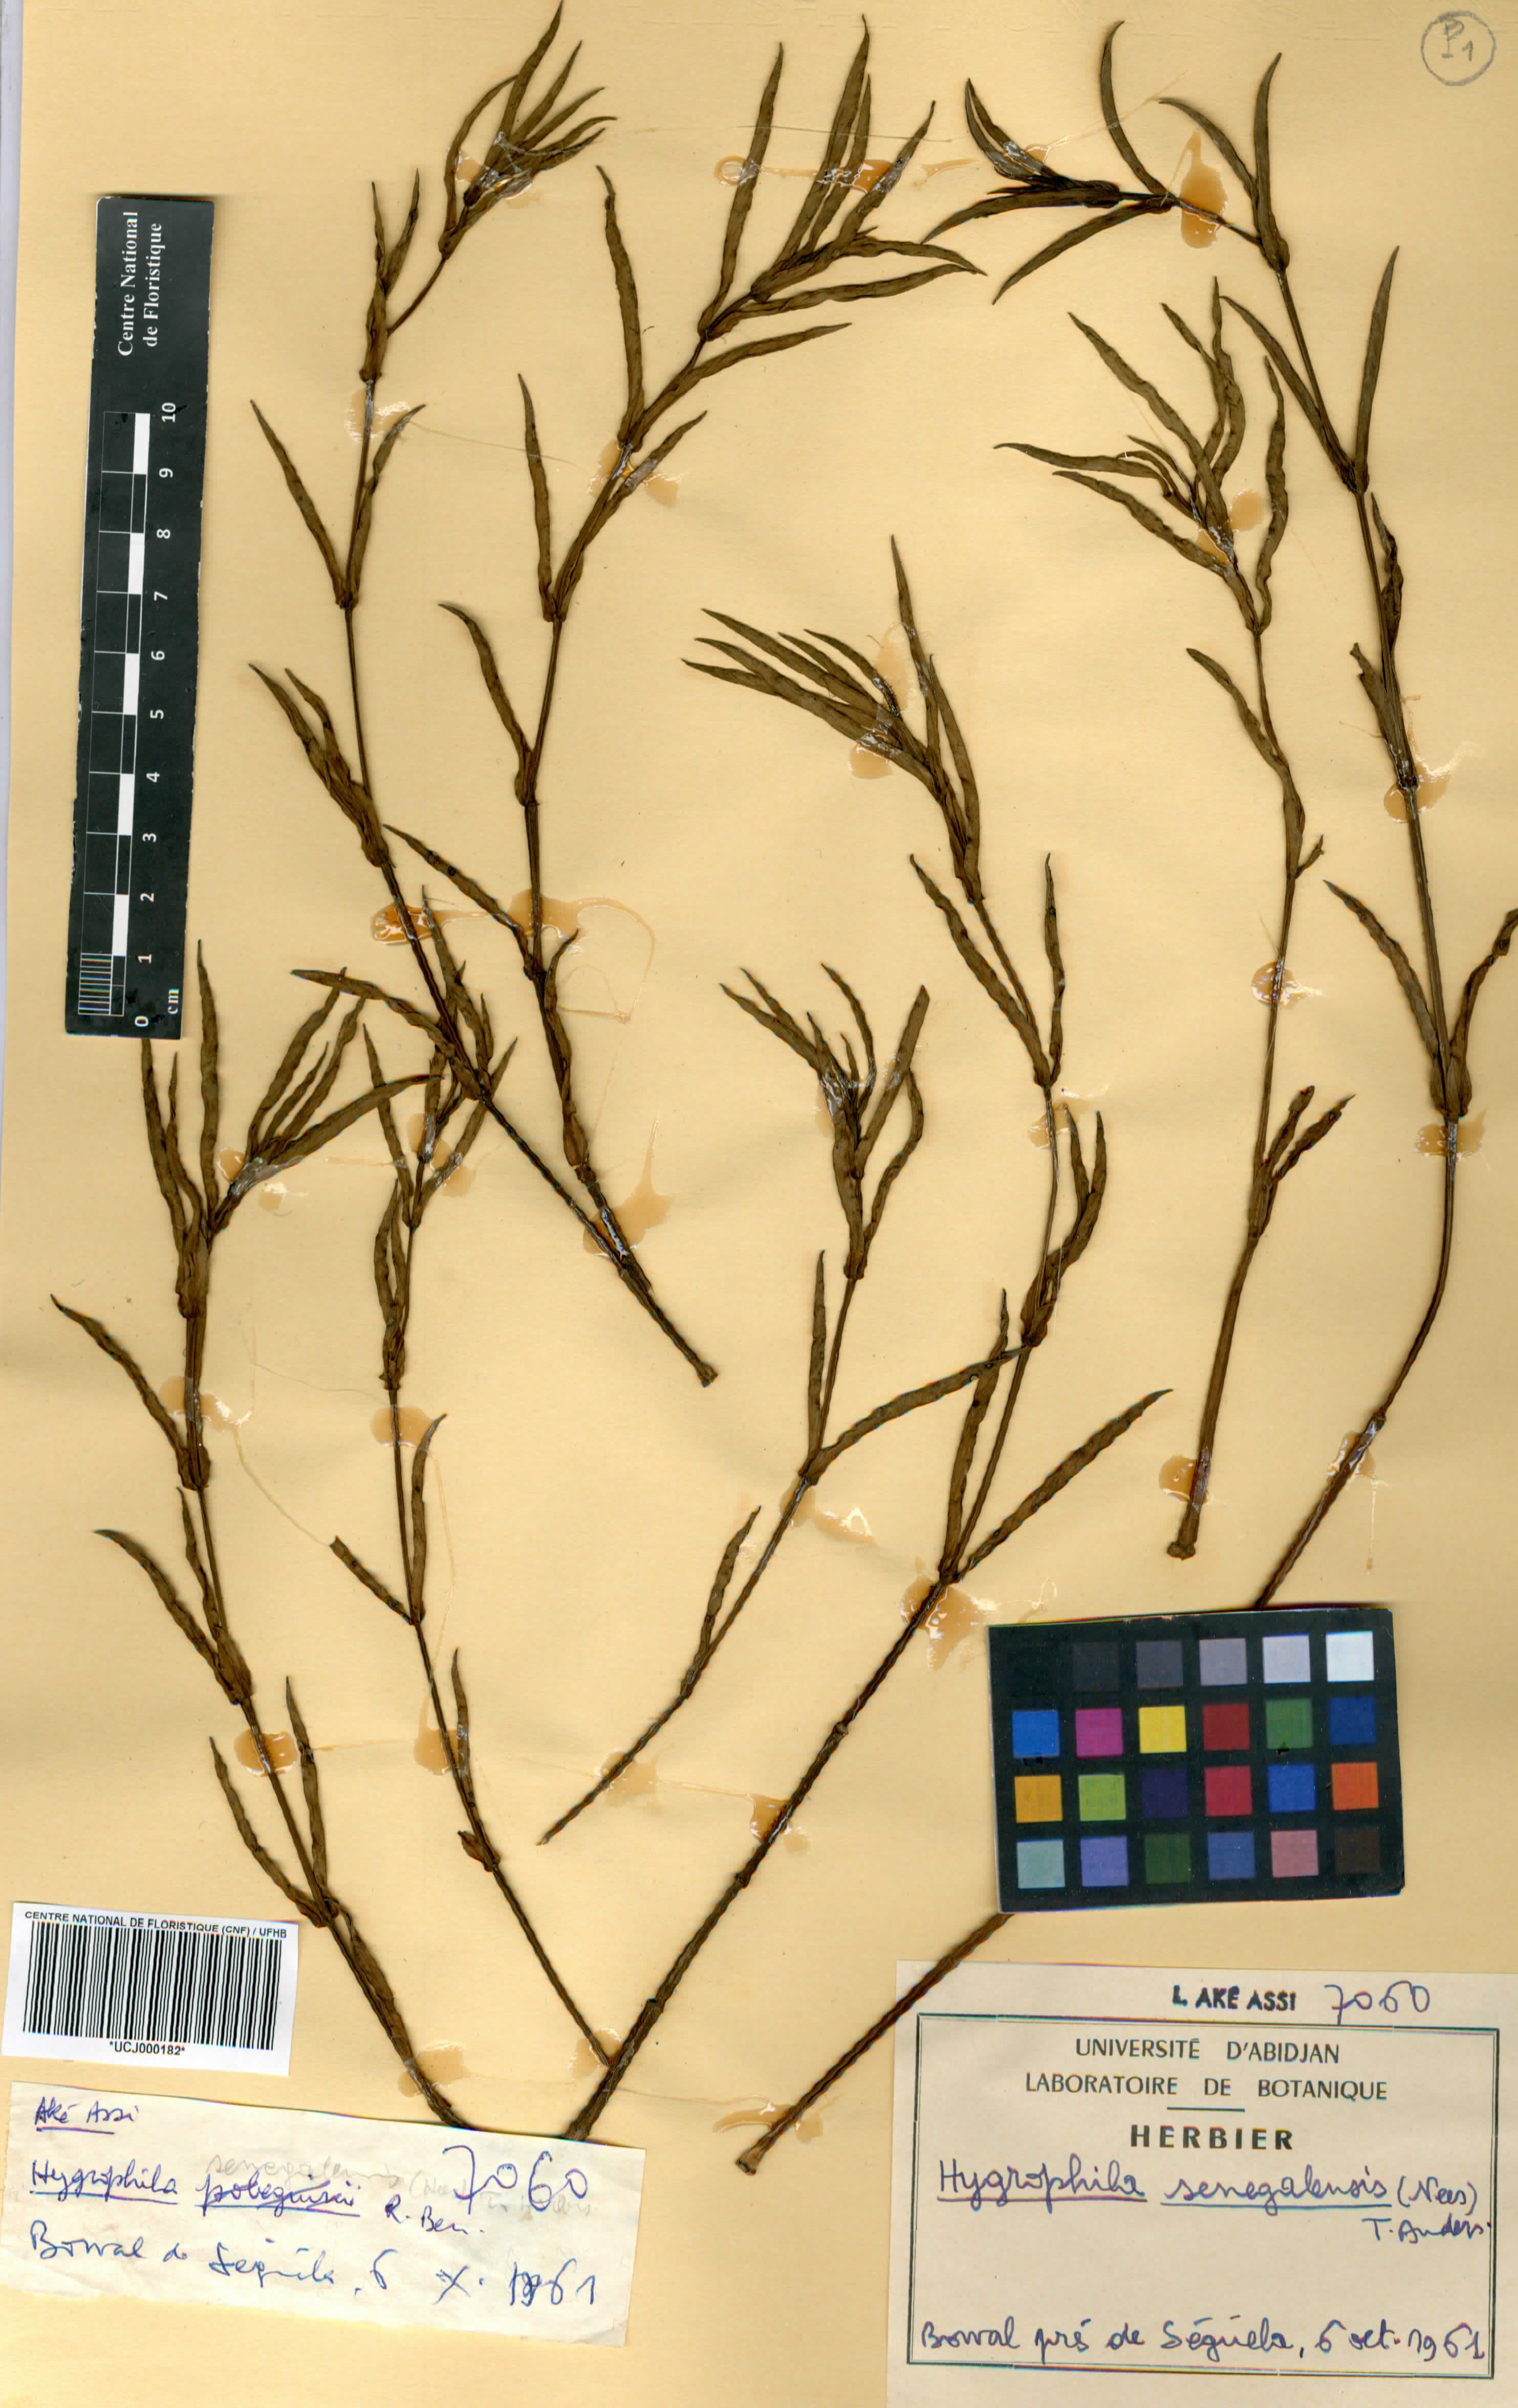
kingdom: Plantae
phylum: Tracheophyta
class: Magnoliopsida
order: Lamiales
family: Acanthaceae
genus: Hygrophila
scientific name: Hygrophila micrantha
